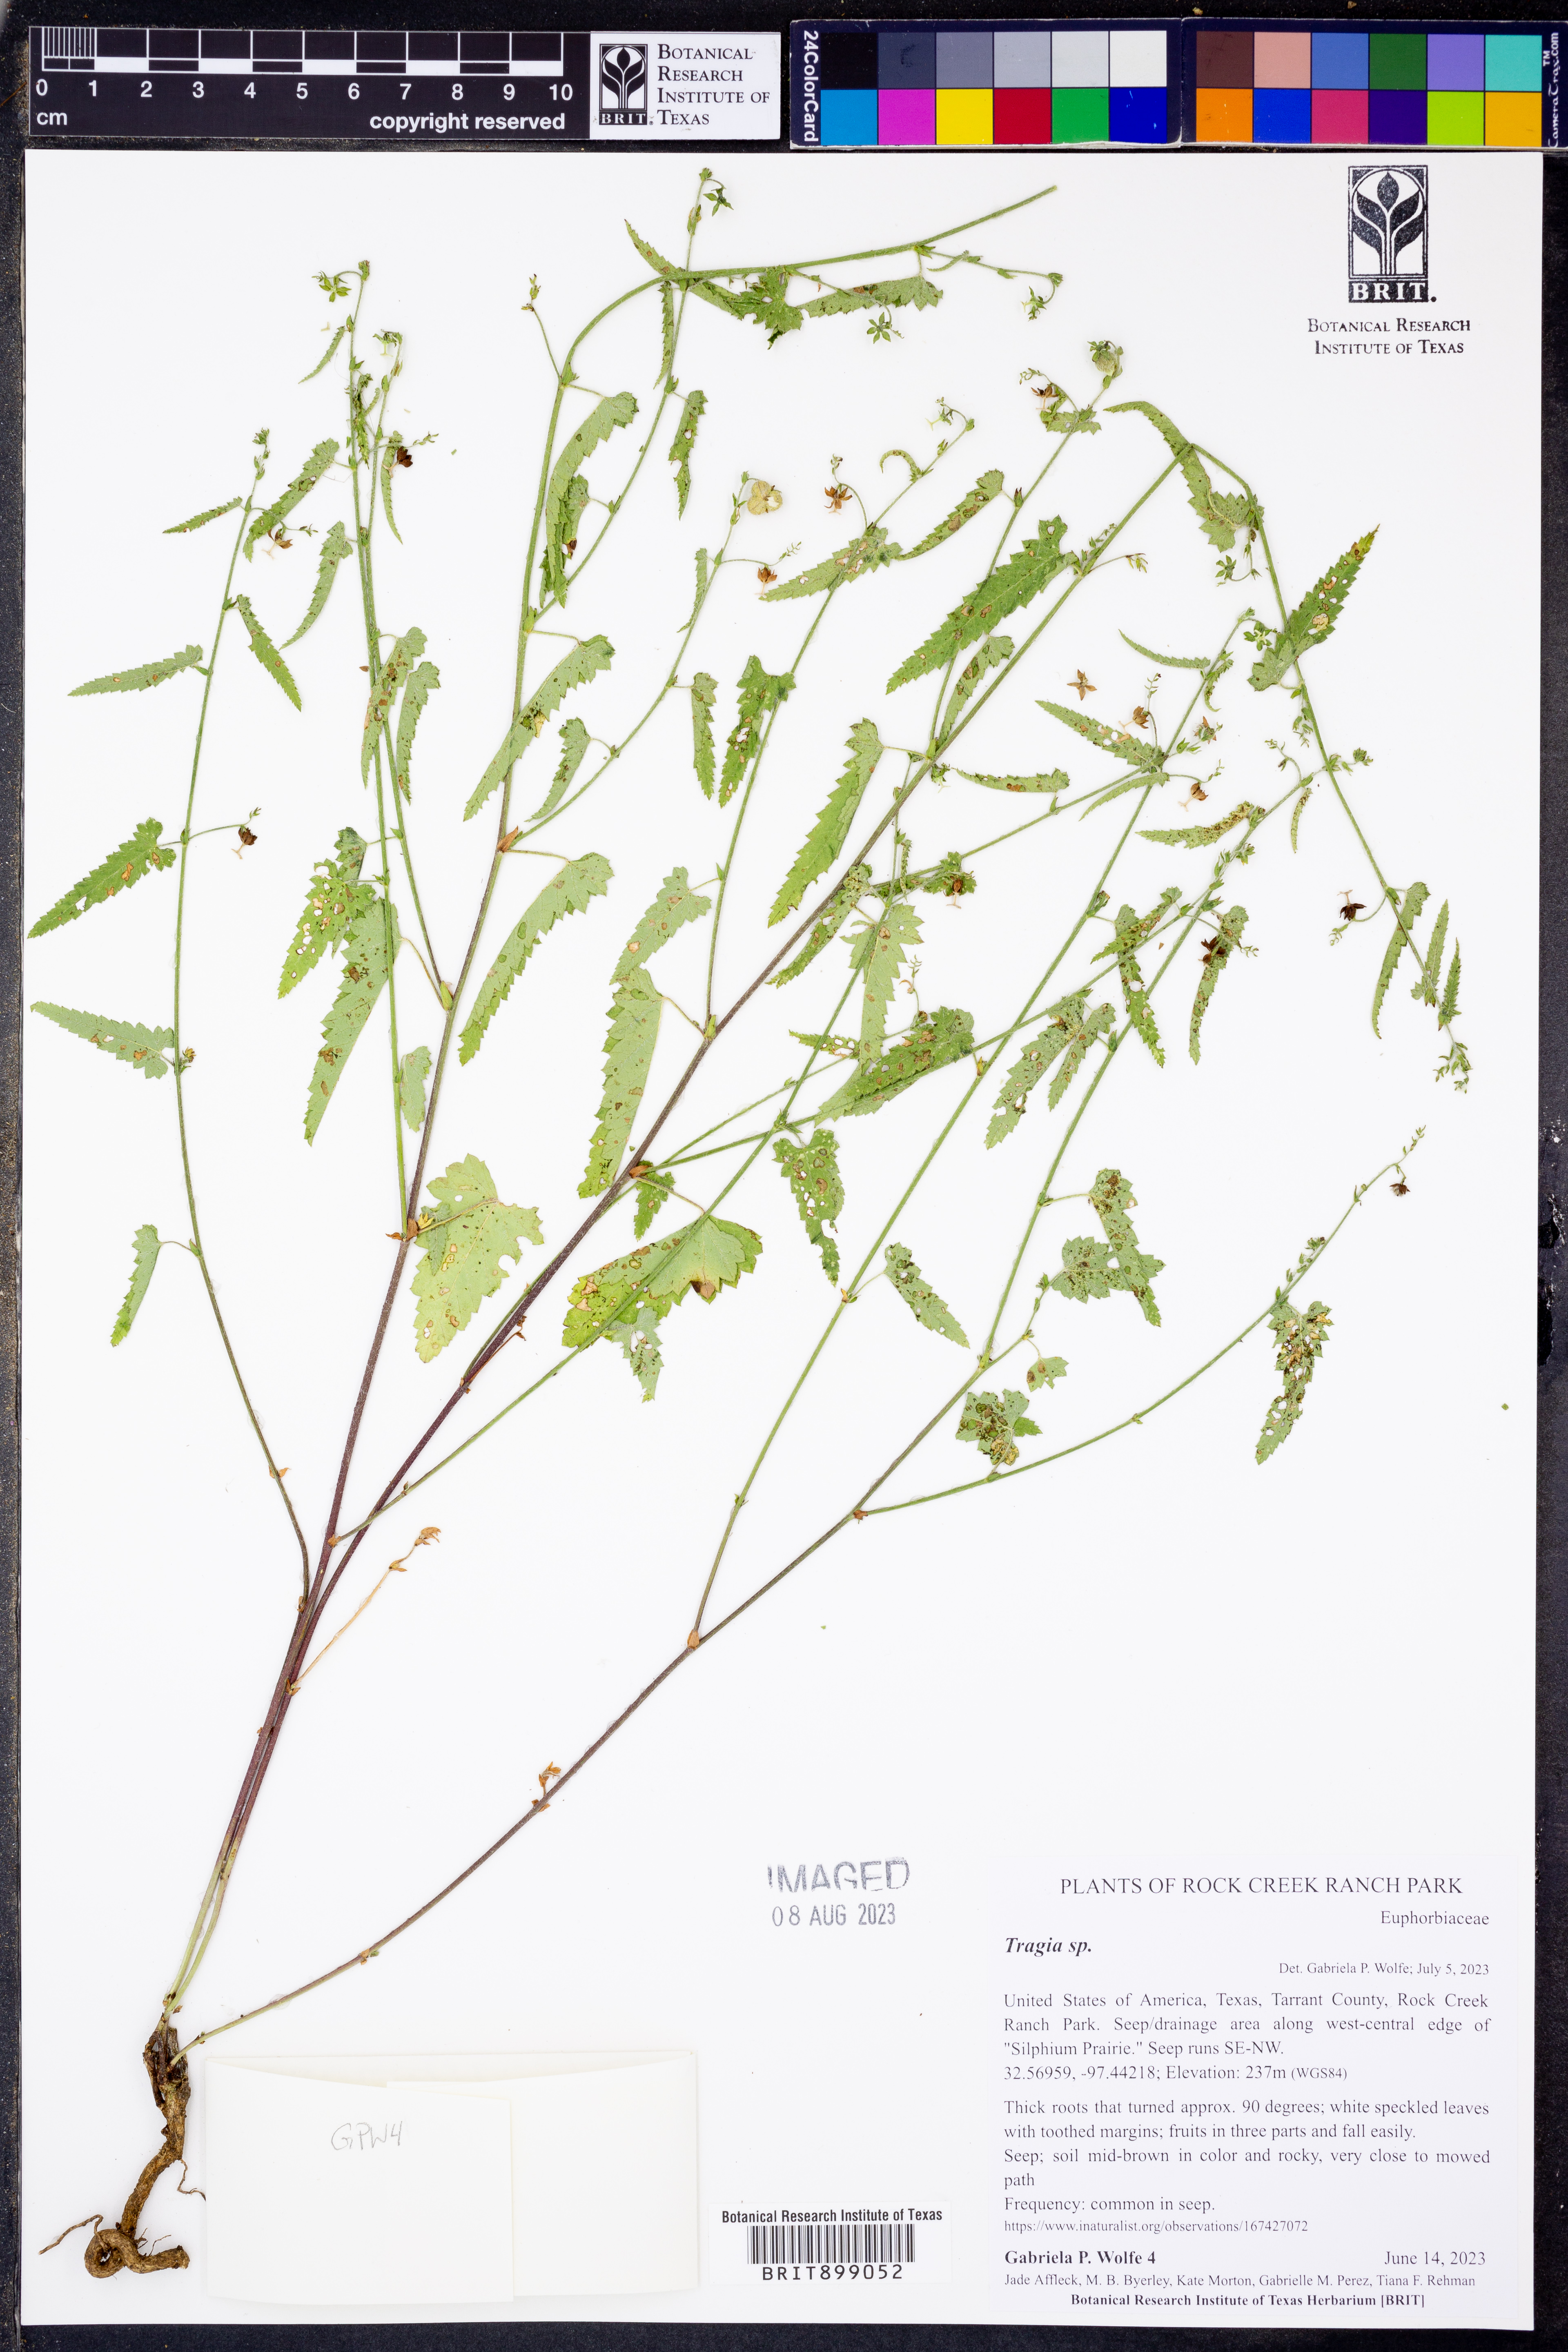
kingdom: Plantae
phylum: Tracheophyta
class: Magnoliopsida
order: Malpighiales
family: Euphorbiaceae
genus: Tragia
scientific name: Tragia
